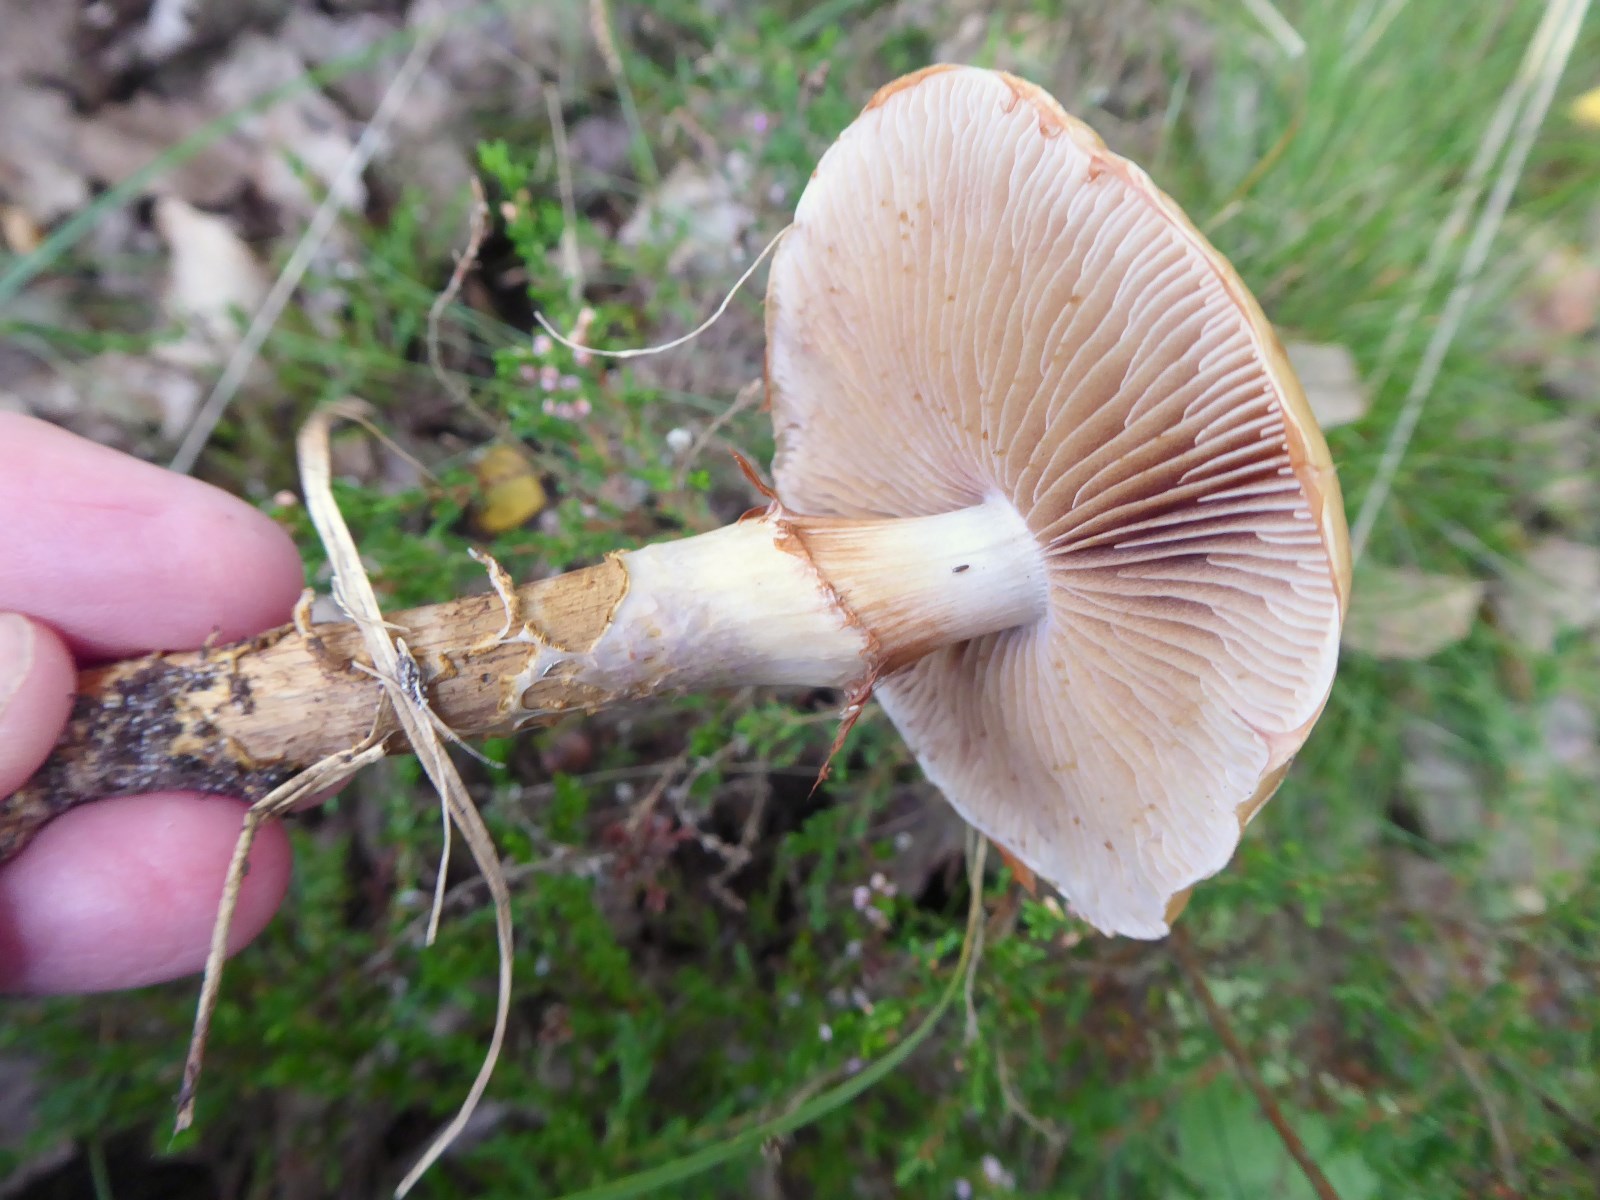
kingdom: Fungi
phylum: Basidiomycota
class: Agaricomycetes
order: Agaricales
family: Cortinariaceae
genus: Cortinarius
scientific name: Cortinarius trivialis
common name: brunslimet slørhat
